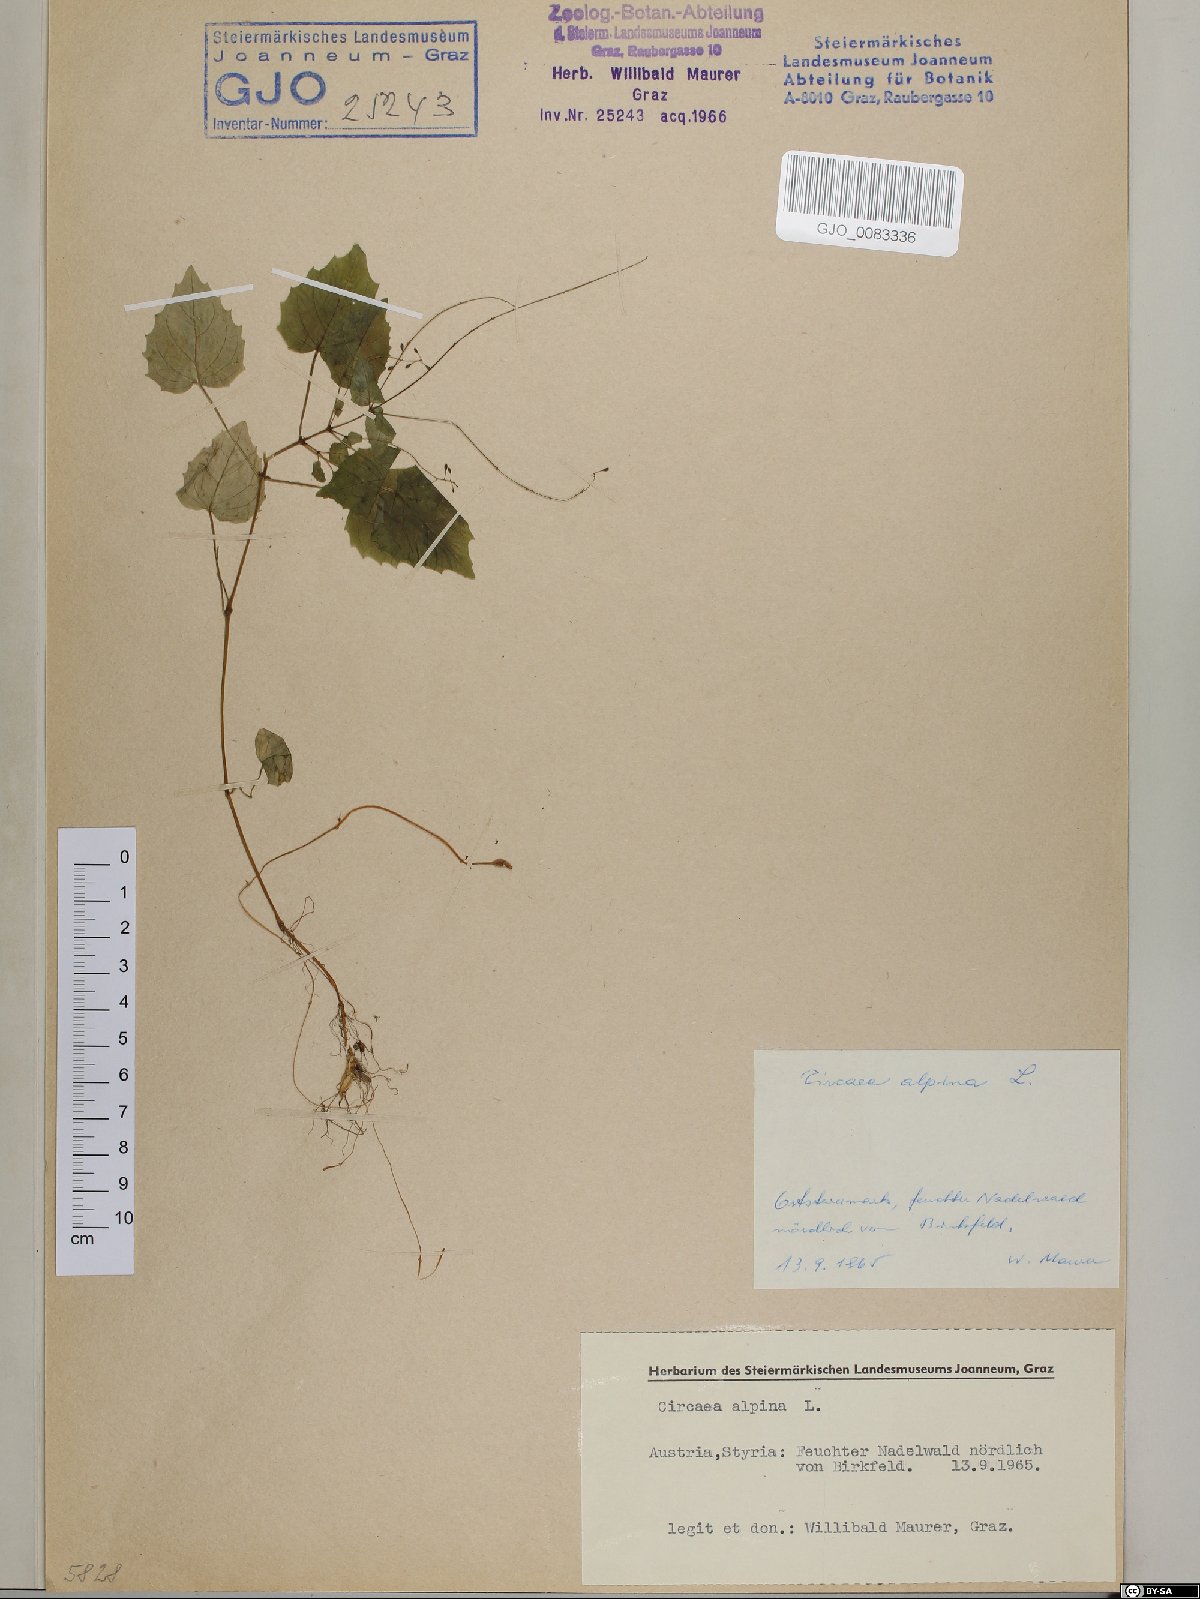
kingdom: Plantae
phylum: Tracheophyta
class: Magnoliopsida
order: Myrtales
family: Onagraceae
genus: Circaea
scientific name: Circaea alpina
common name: Alpine enchanter's-nightshade
